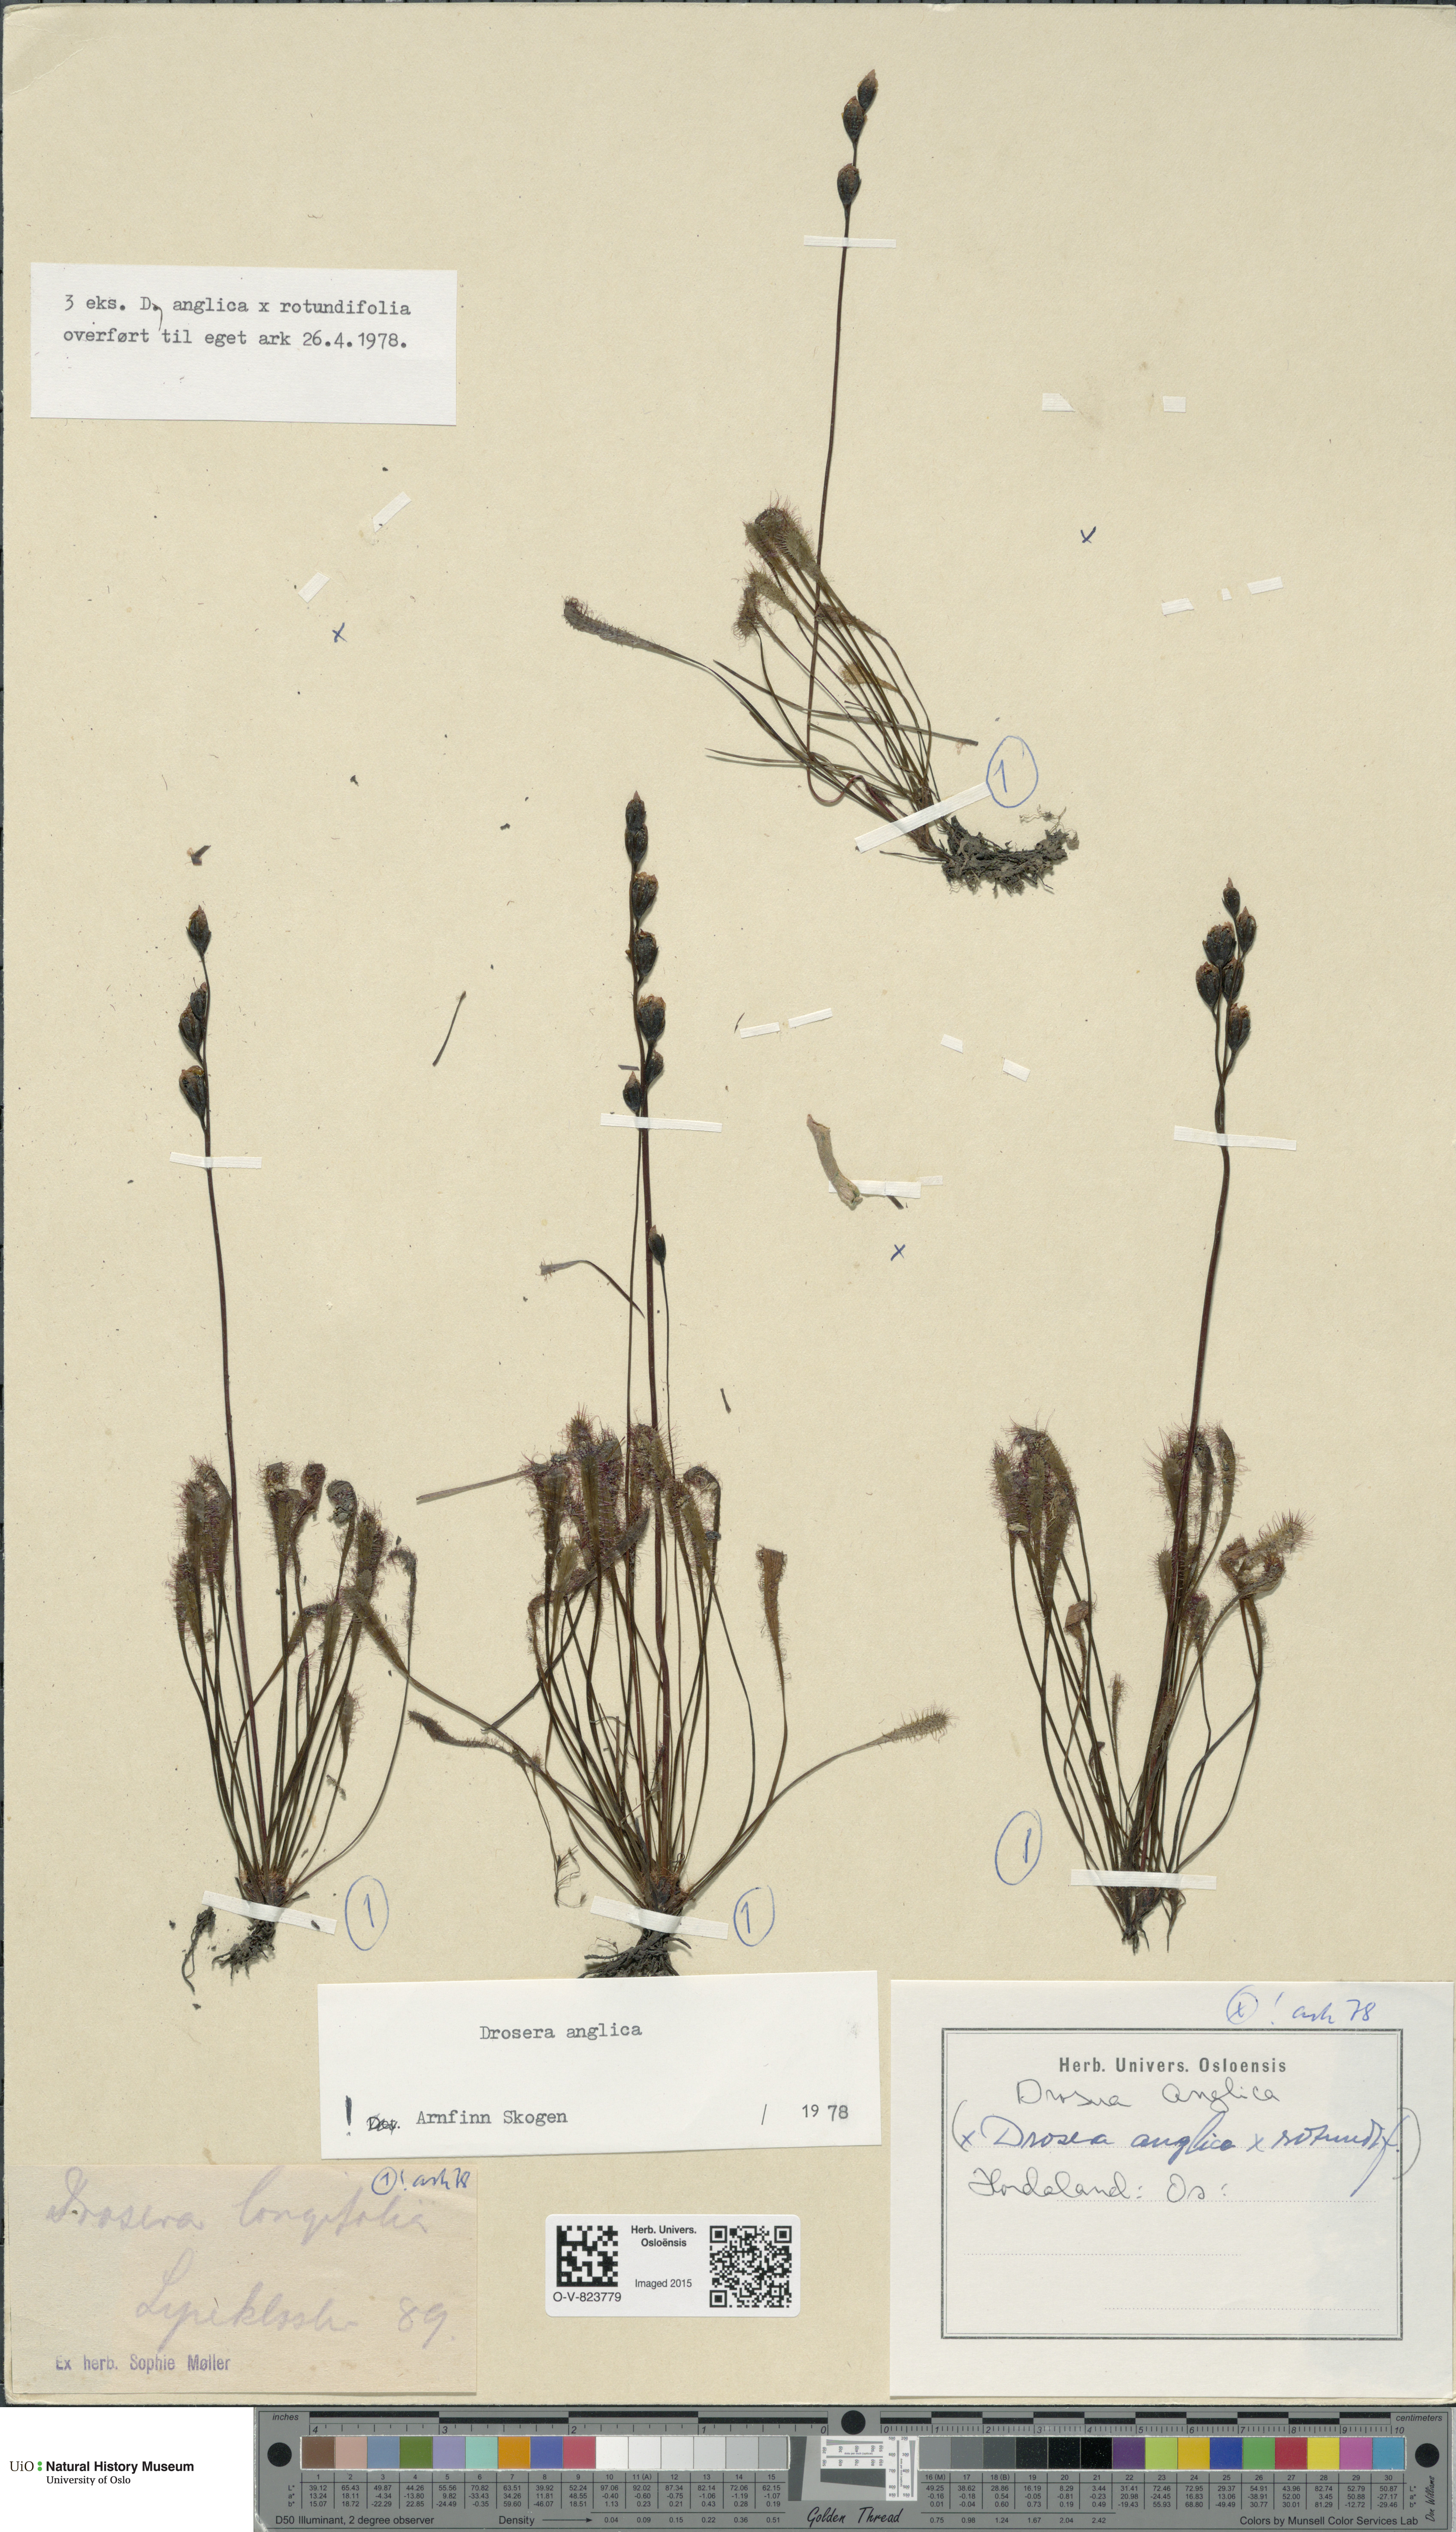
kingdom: Plantae
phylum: Tracheophyta
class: Magnoliopsida
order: Caryophyllales
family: Droseraceae
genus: Drosera
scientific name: Drosera anglica
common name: Great sundew
